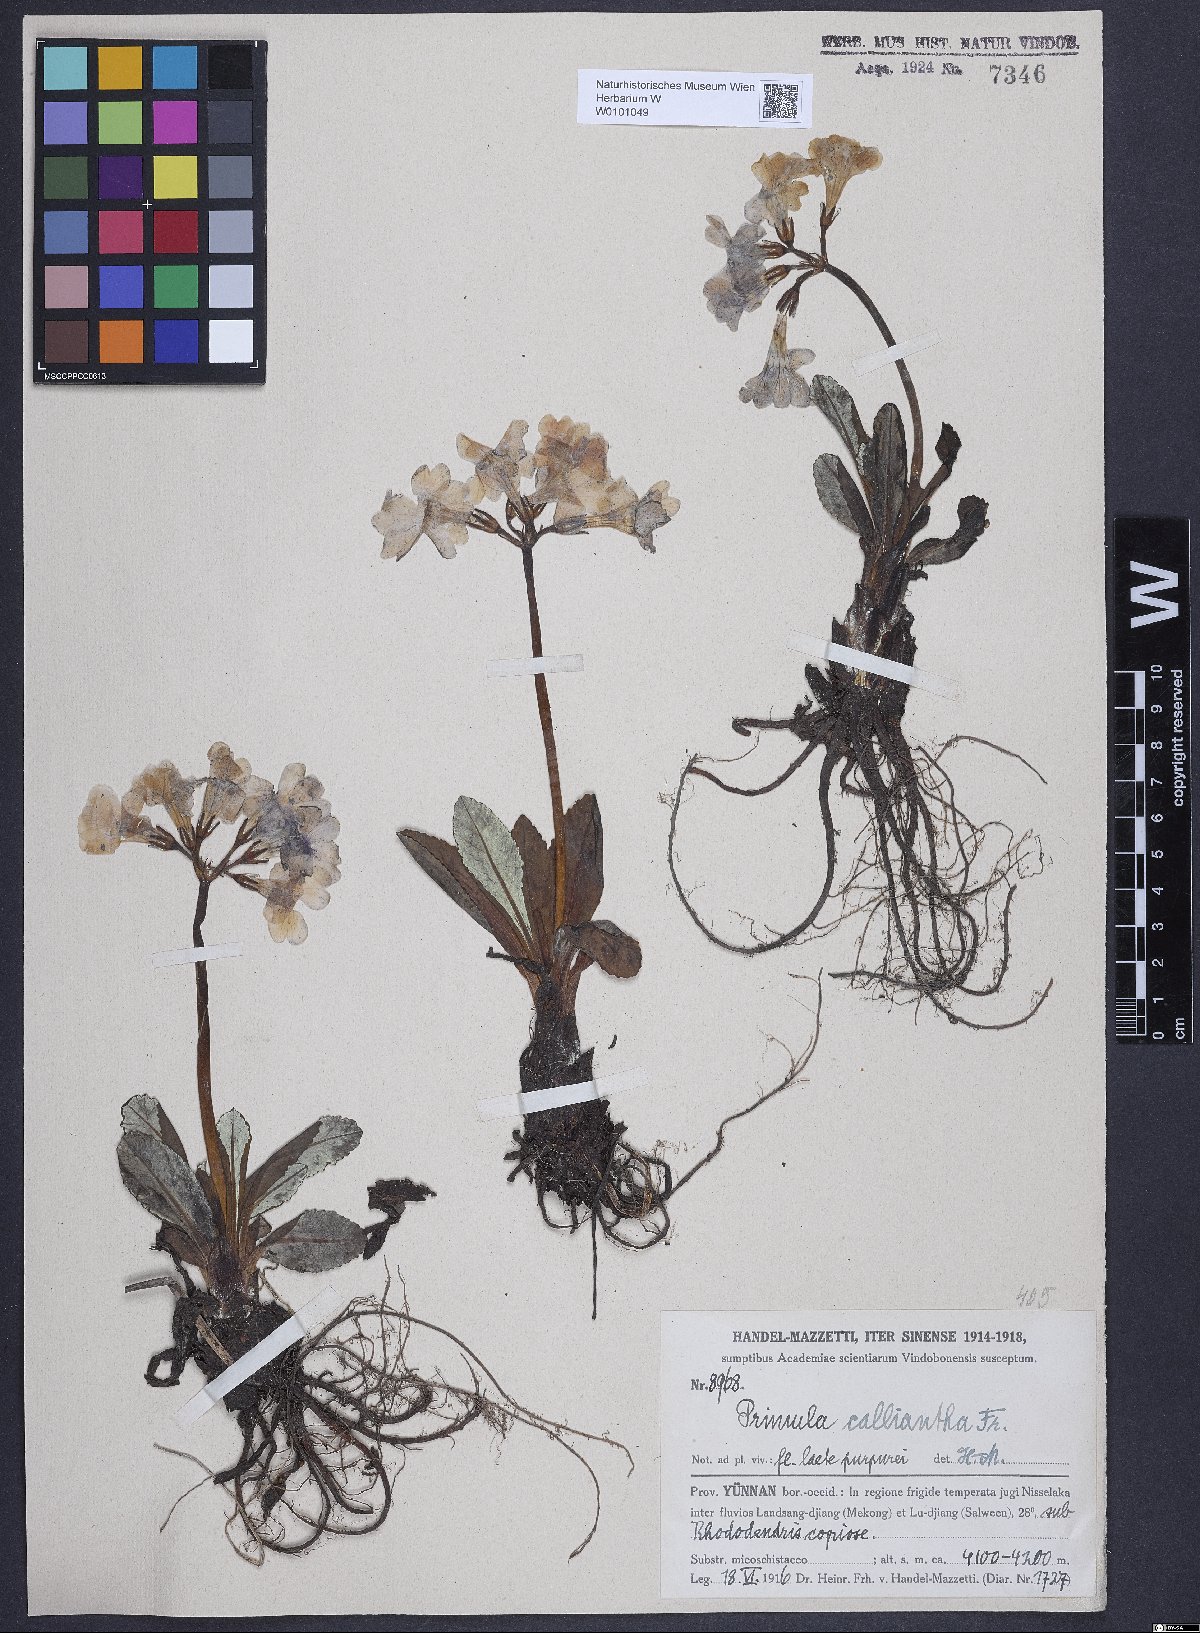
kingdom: Plantae
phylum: Tracheophyta
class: Magnoliopsida
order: Ericales
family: Primulaceae
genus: Primula
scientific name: Primula calliantha
